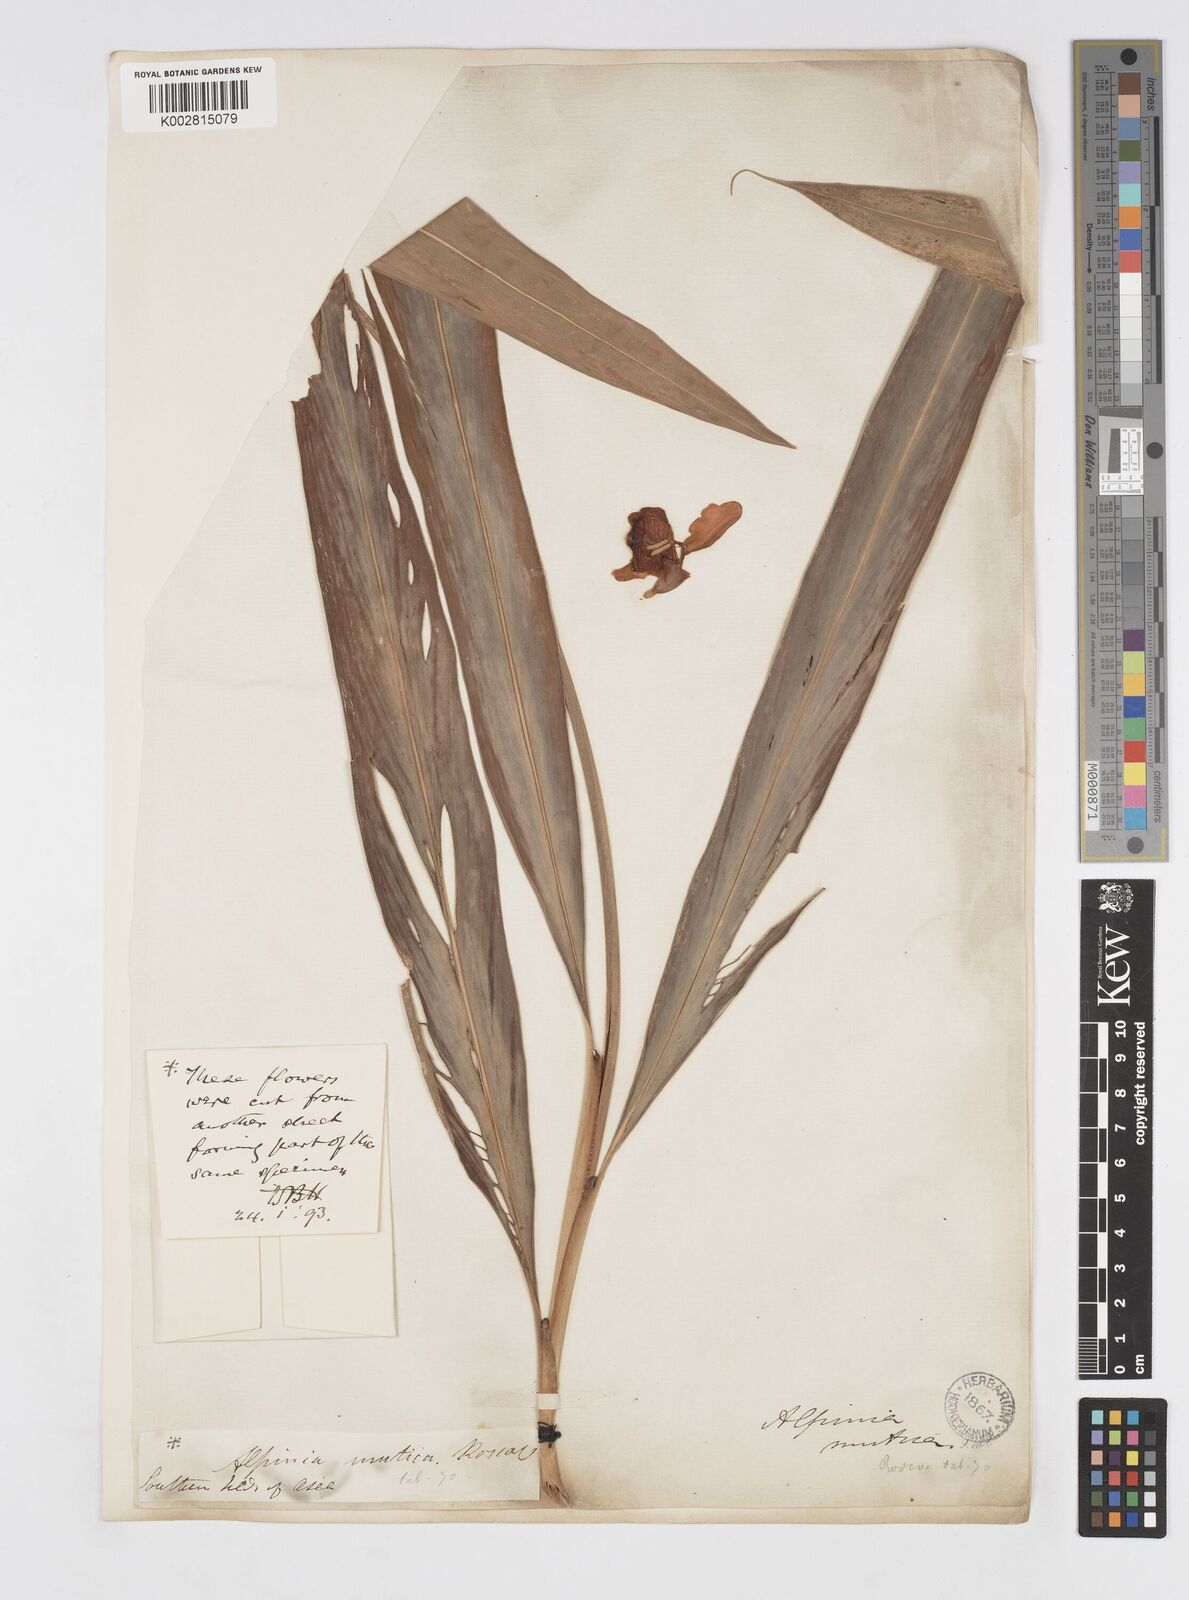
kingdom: Plantae
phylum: Tracheophyta
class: Liliopsida
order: Zingiberales
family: Zingiberaceae
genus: Alpinia
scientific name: Alpinia
